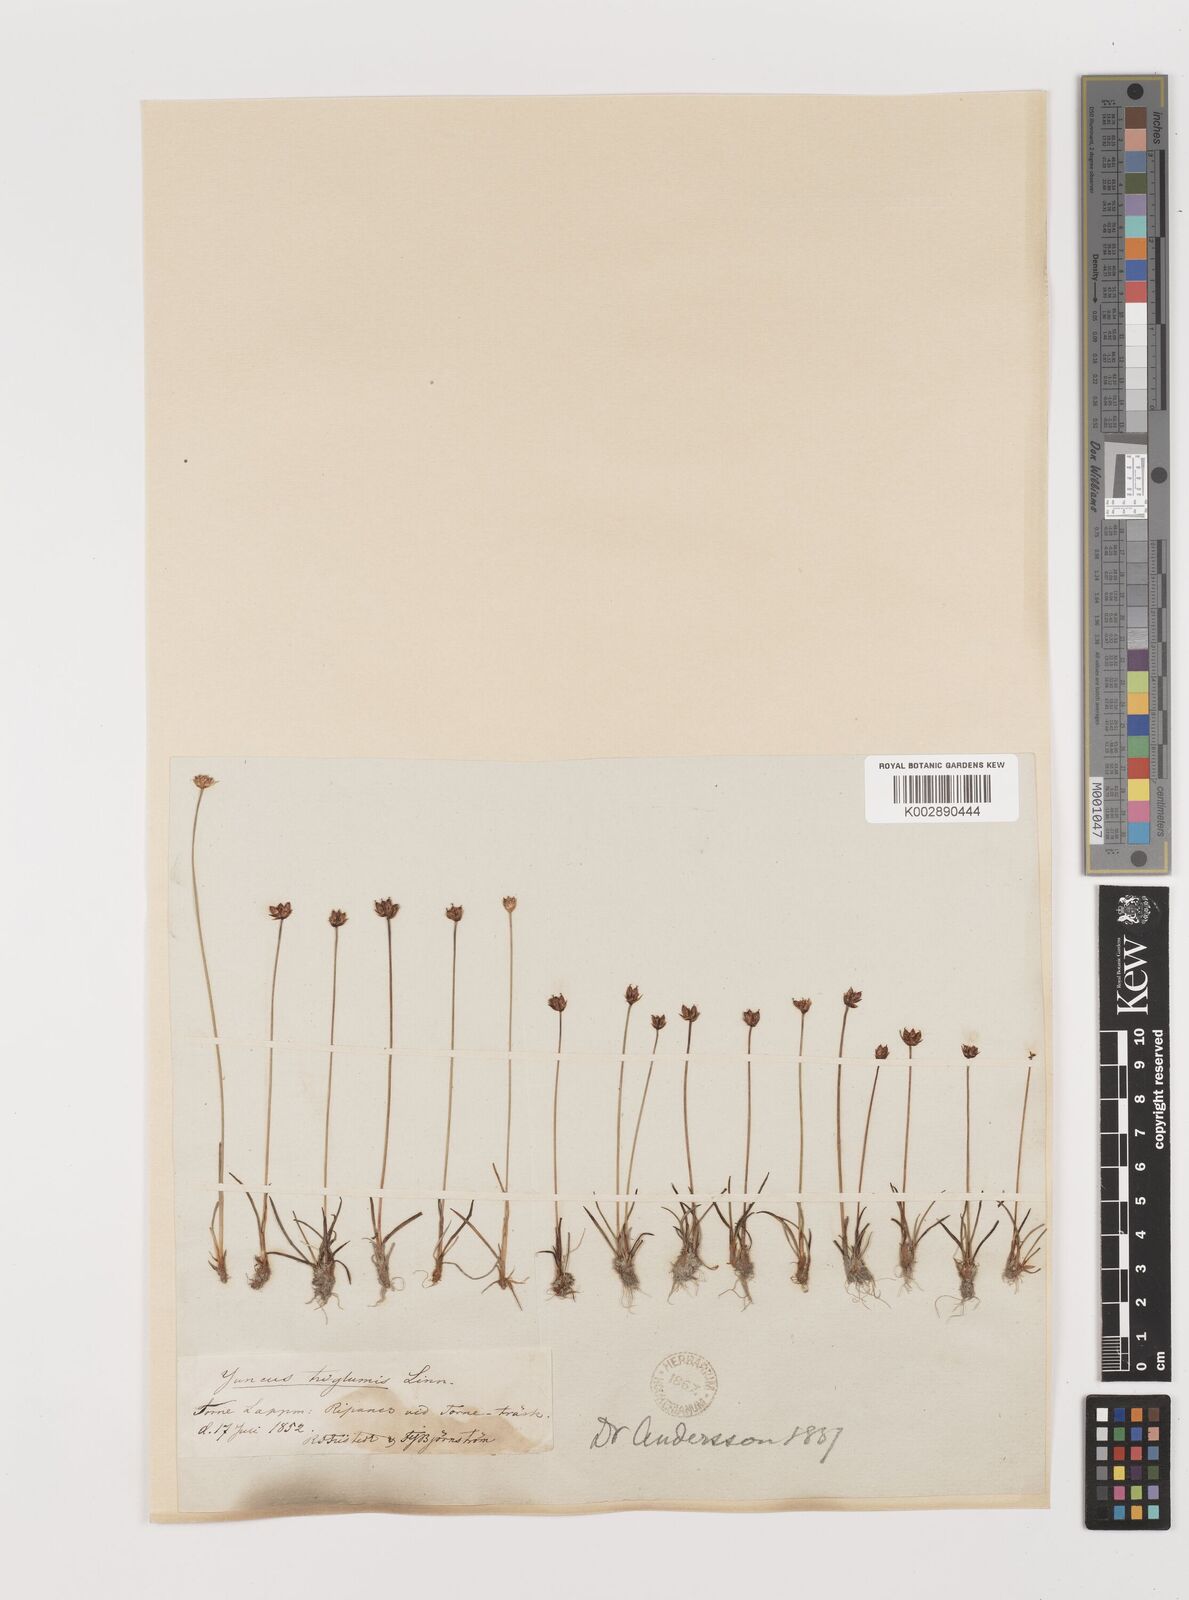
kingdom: Plantae
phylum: Tracheophyta
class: Liliopsida
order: Poales
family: Juncaceae
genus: Juncus
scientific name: Juncus triglumis
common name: Three-flowered rush
